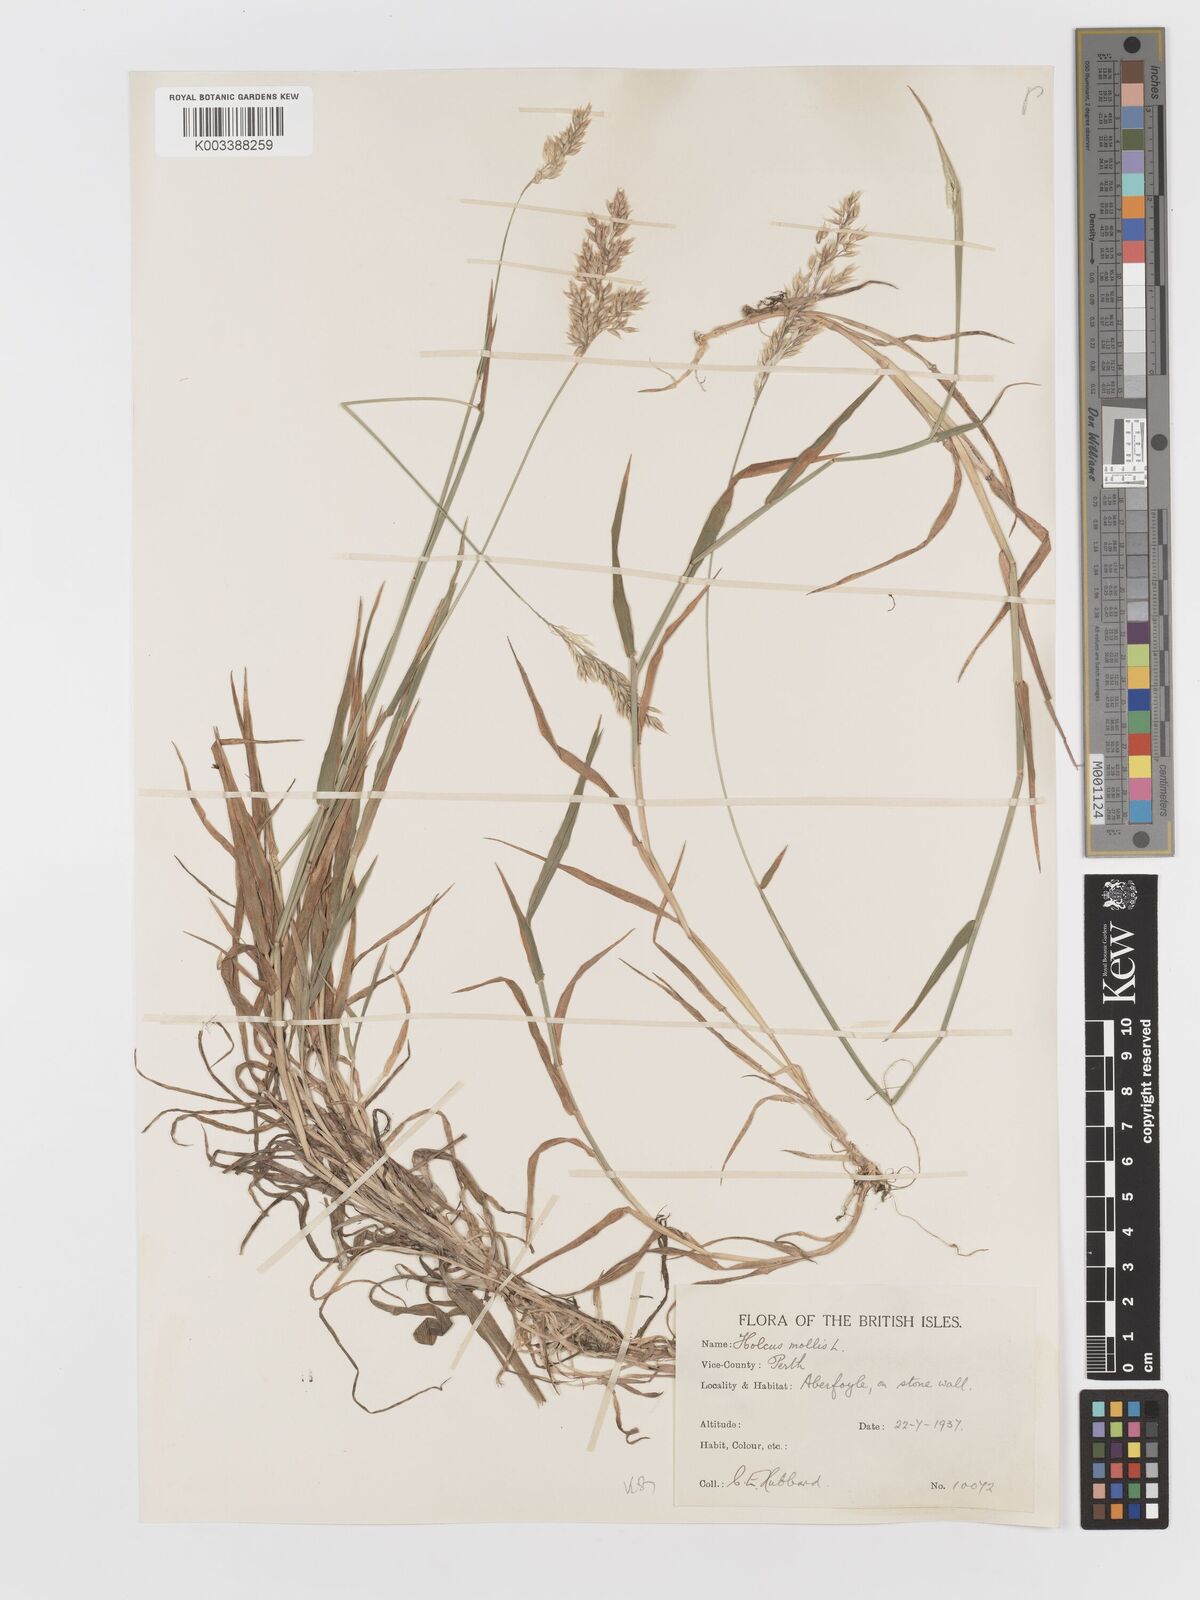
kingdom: Plantae
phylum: Tracheophyta
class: Liliopsida
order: Poales
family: Poaceae
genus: Holcus
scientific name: Holcus mollis
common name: Creeping velvetgrass
